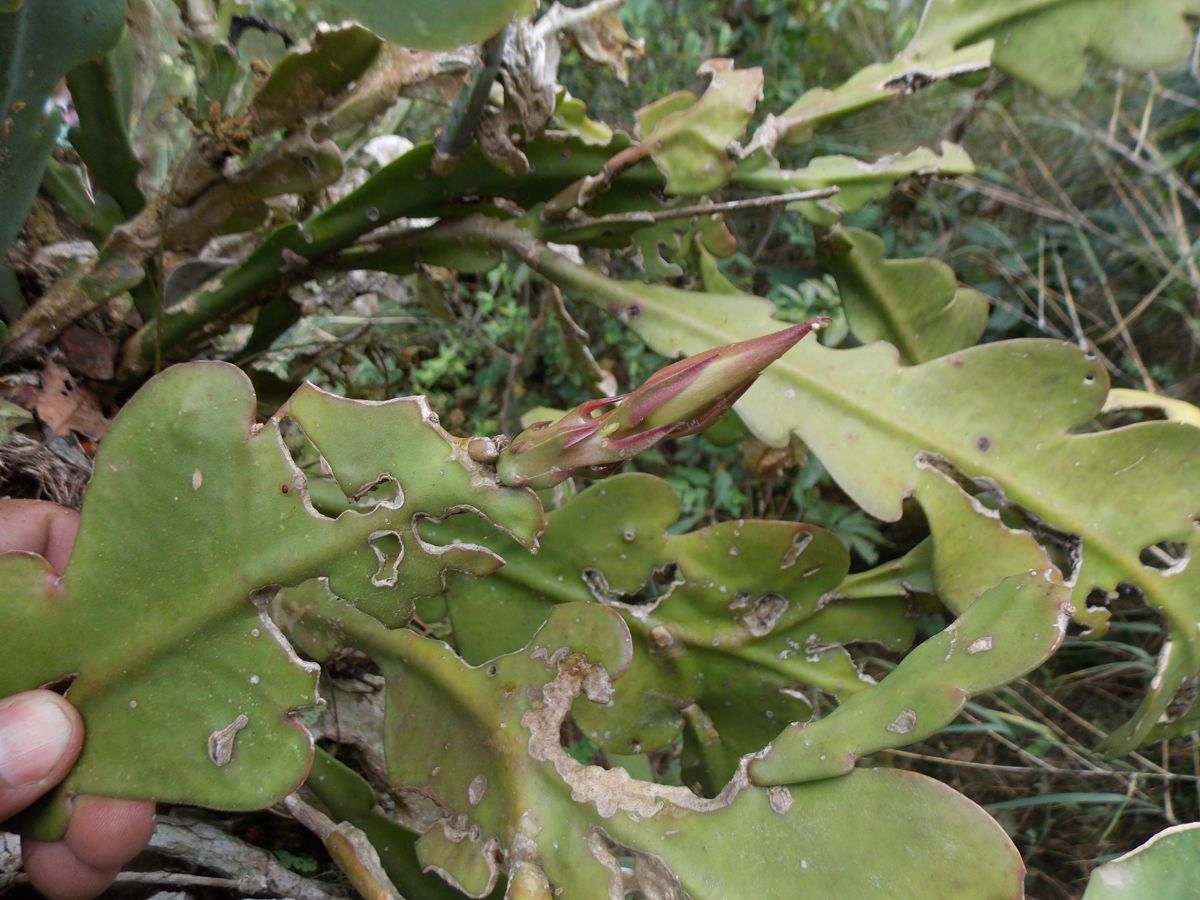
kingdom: Plantae
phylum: Tracheophyta
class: Magnoliopsida
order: Caryophyllales
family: Cactaceae
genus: Disocactus
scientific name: Disocactus crenatus
